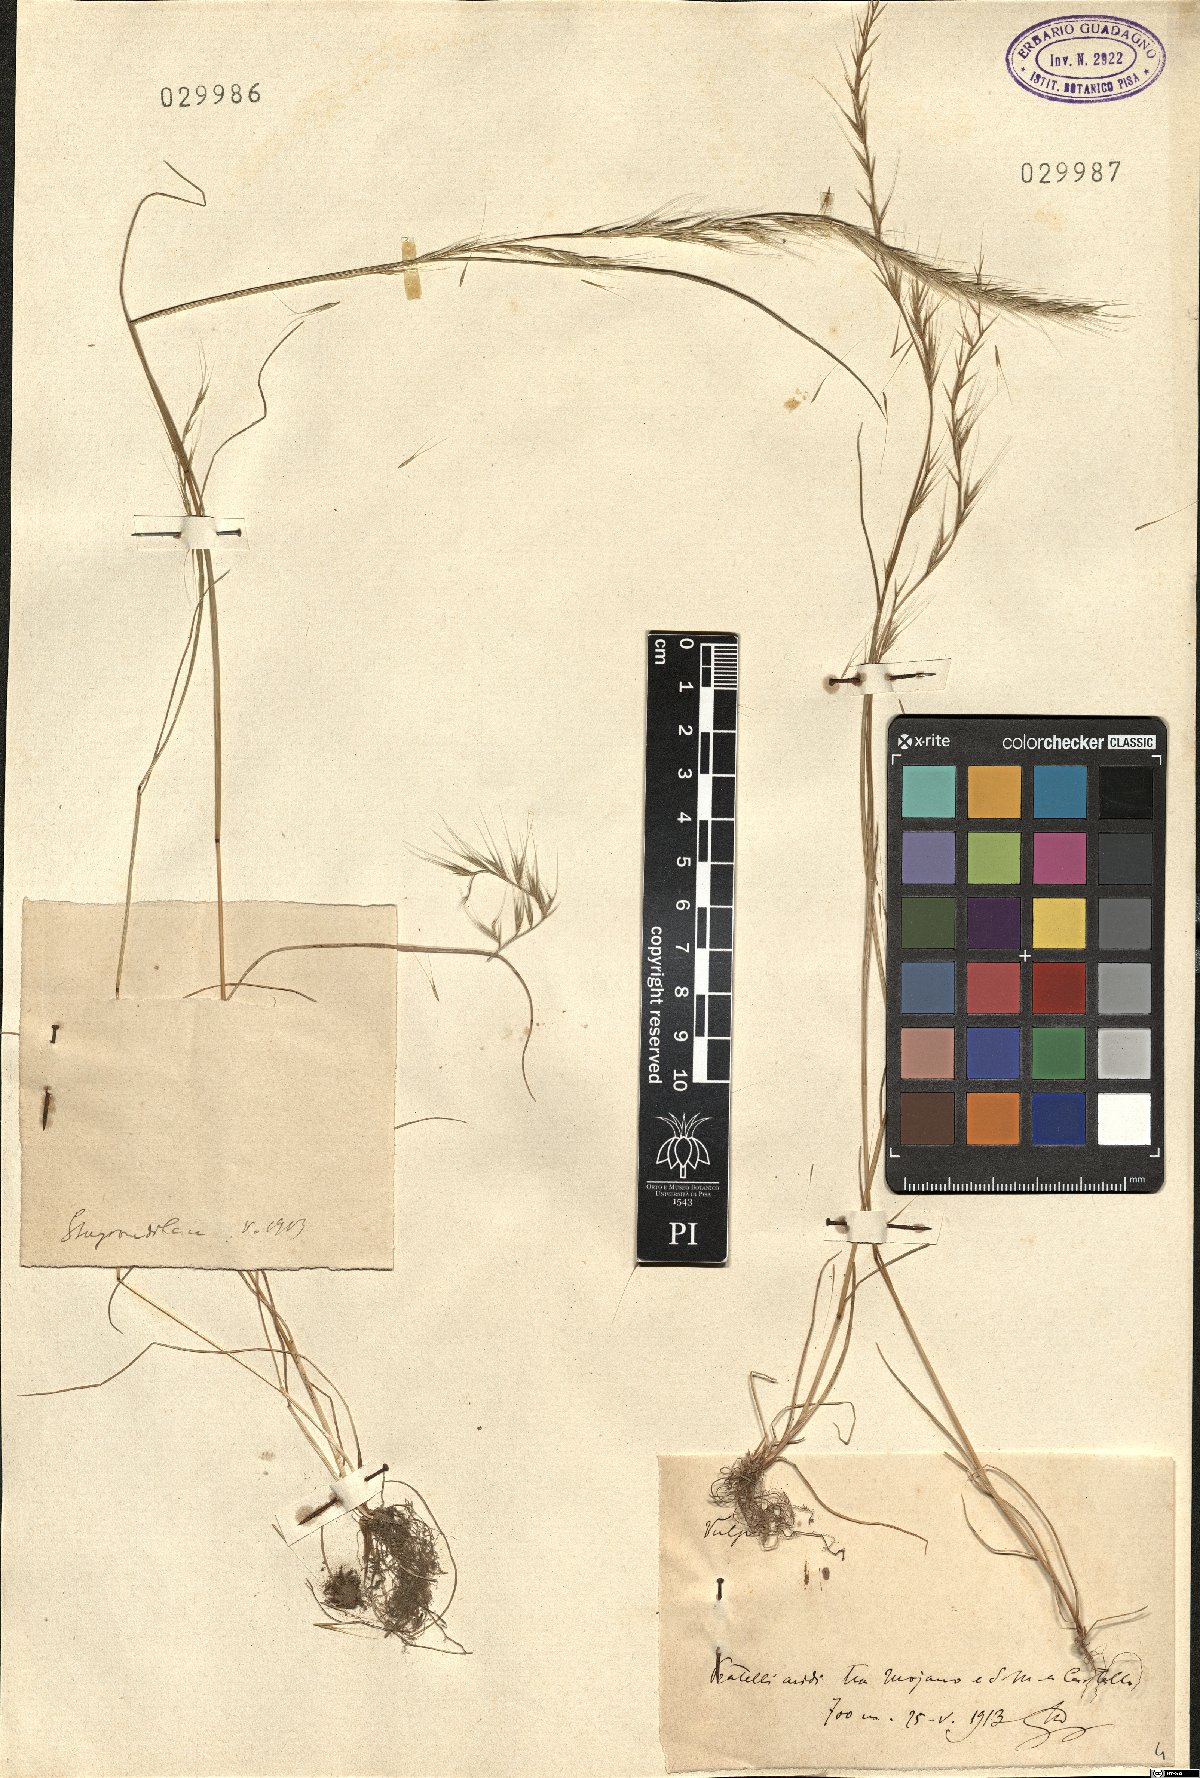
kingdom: Plantae
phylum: Tracheophyta
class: Liliopsida
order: Poales
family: Poaceae
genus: Festuca
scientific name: Festuca
